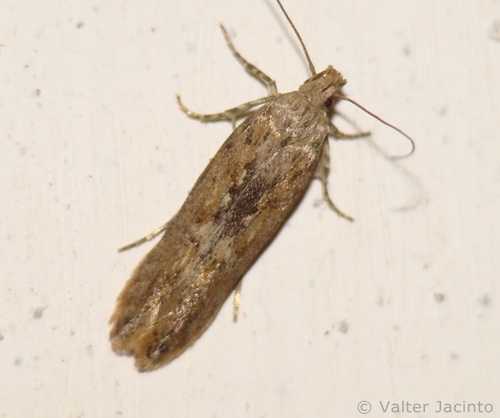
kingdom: Animalia
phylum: Arthropoda
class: Insecta
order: Lepidoptera
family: Gelechiidae
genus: Phthorimaea
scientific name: Phthorimaea operculella
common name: Potato tuber moth
